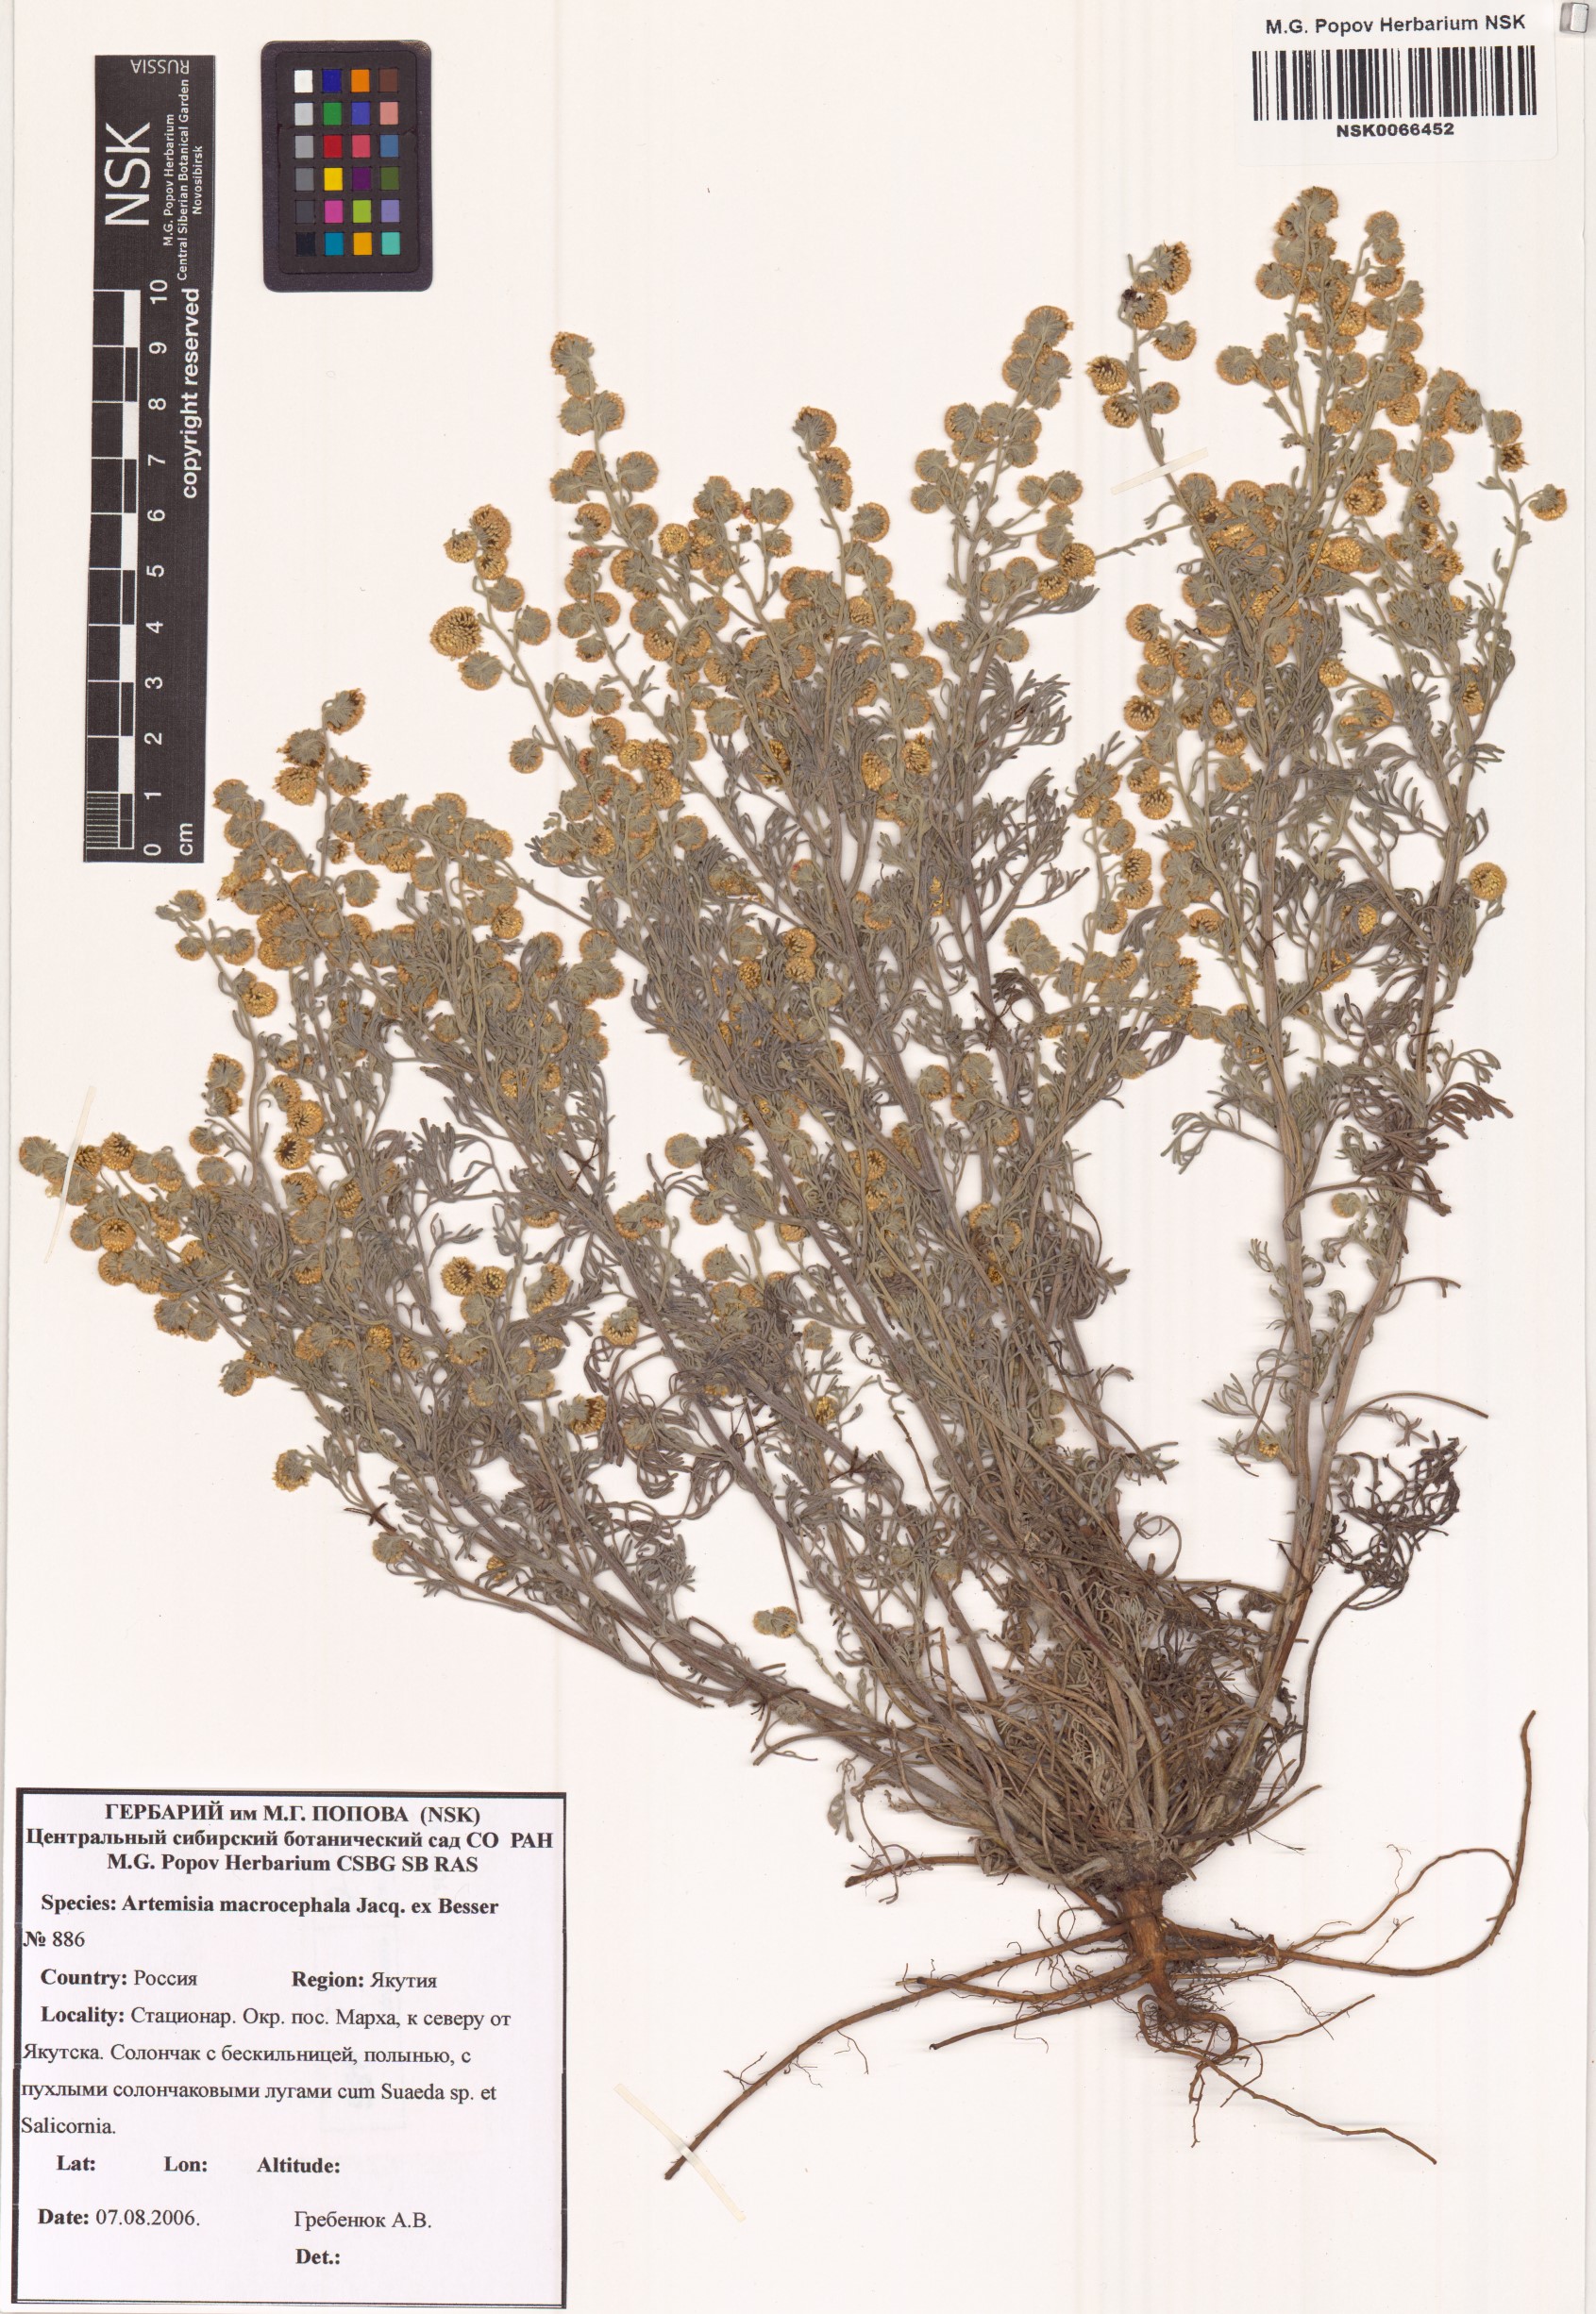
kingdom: Plantae
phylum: Tracheophyta
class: Magnoliopsida
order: Asterales
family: Asteraceae
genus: Artemisia
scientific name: Artemisia macrocephala
